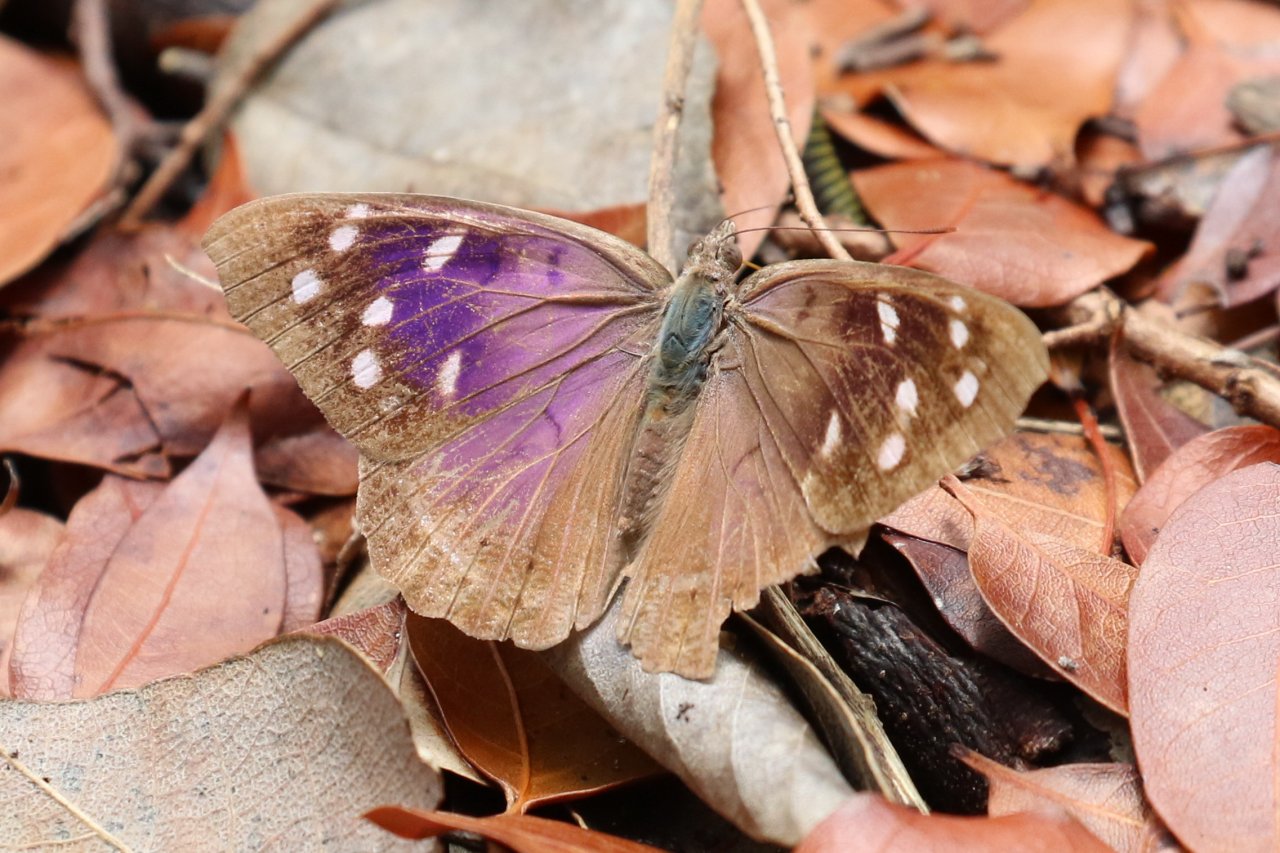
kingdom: Animalia
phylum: Arthropoda
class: Insecta
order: Lepidoptera
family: Nymphalidae
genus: Eunica
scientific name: Eunica tatila
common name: Florida Purplewing
